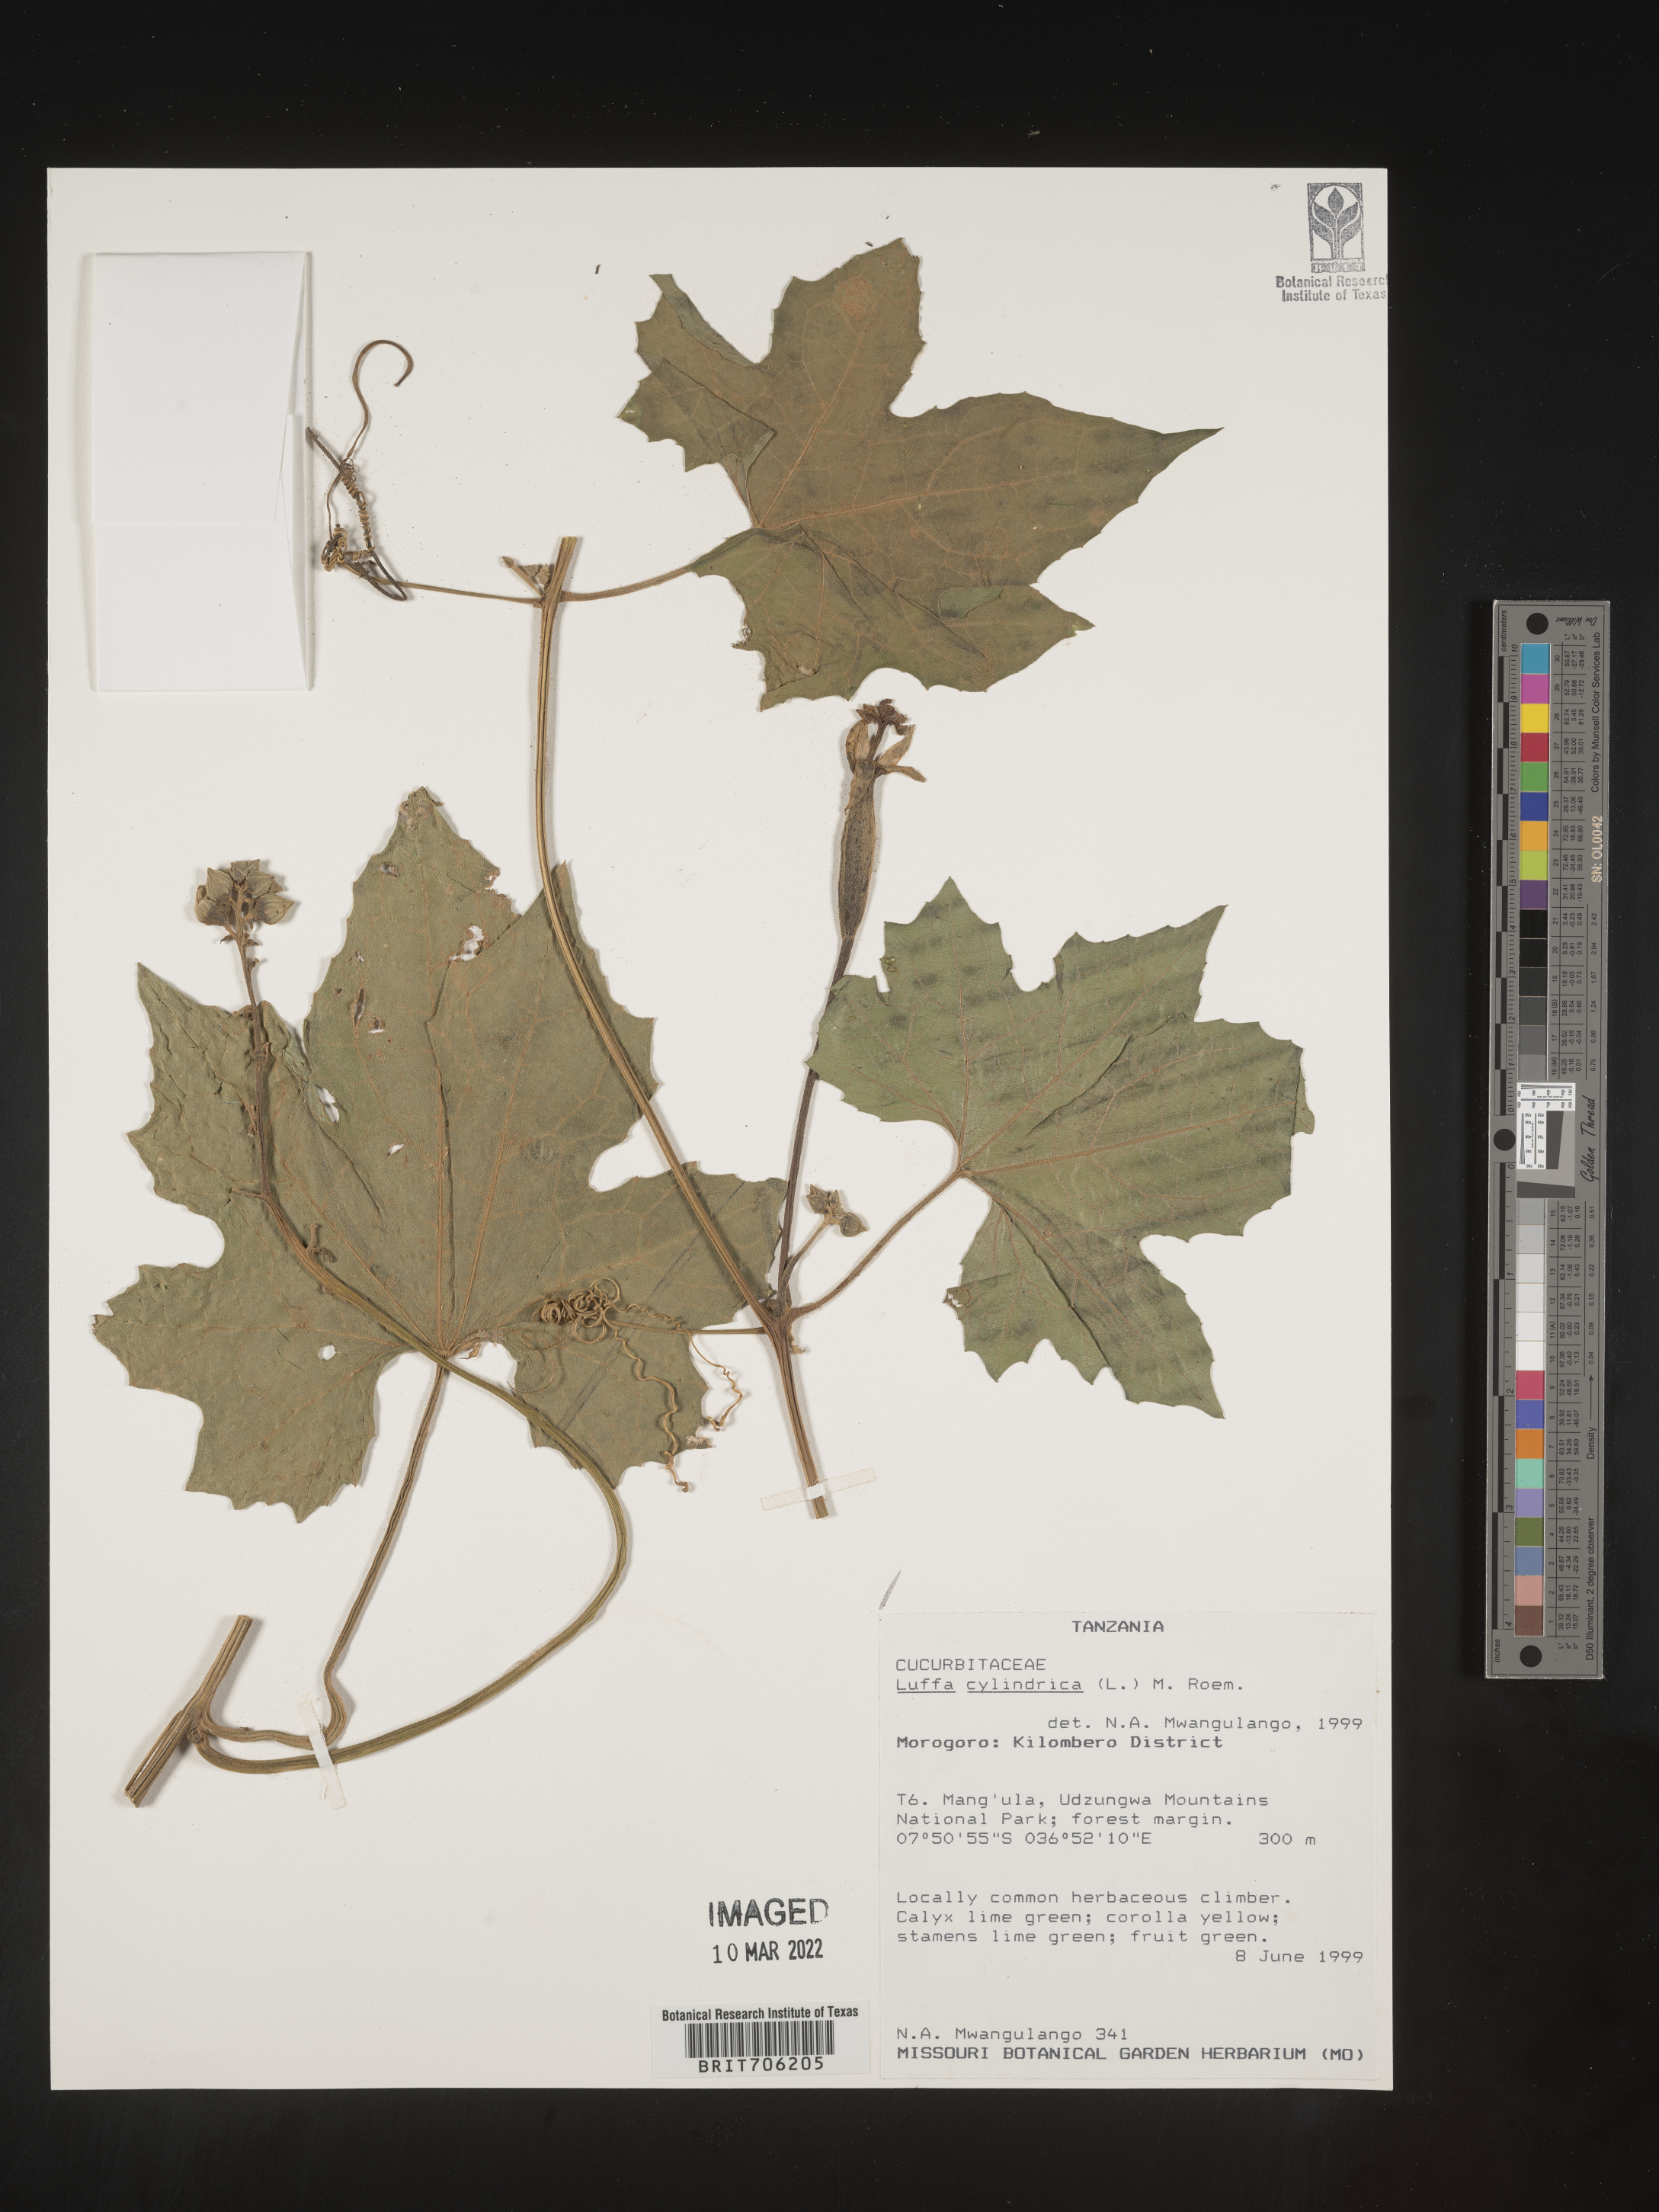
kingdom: Plantae
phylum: Tracheophyta
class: Magnoliopsida
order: Cucurbitales
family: Cucurbitaceae
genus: Luffa
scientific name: Luffa
